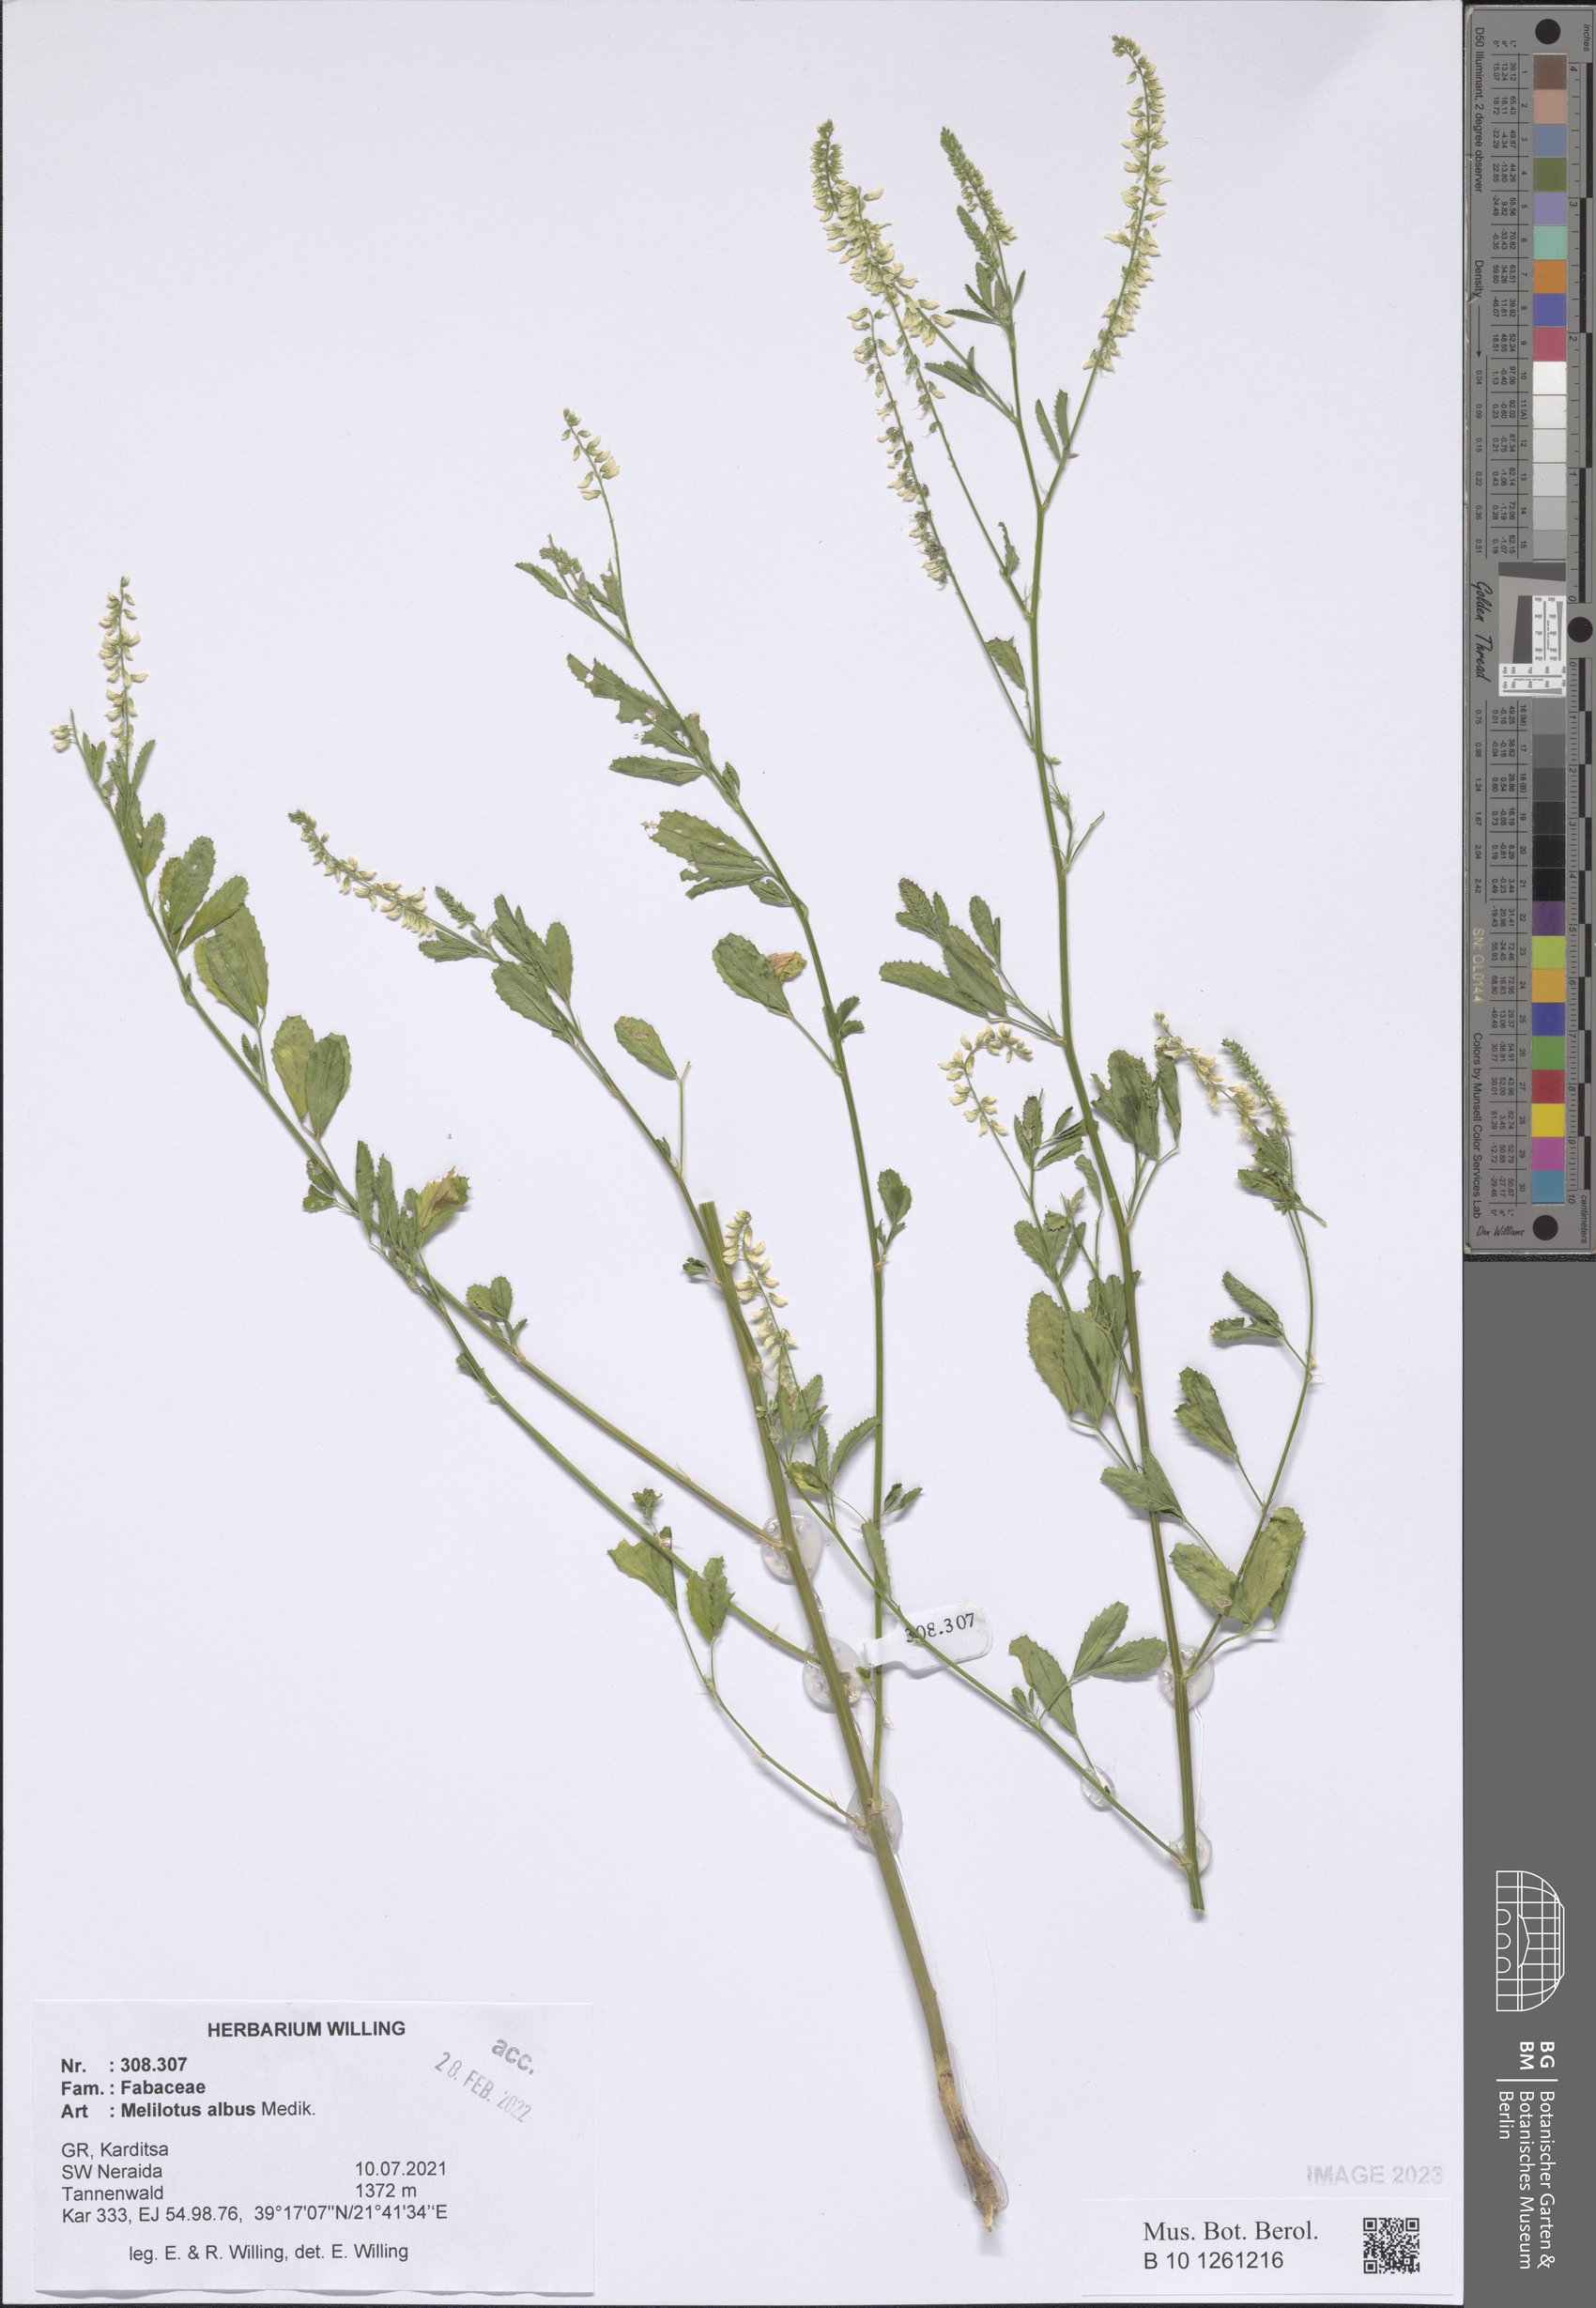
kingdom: Plantae
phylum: Tracheophyta
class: Magnoliopsida
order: Fabales
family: Fabaceae
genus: Melilotus
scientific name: Melilotus albus
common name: White melilot
